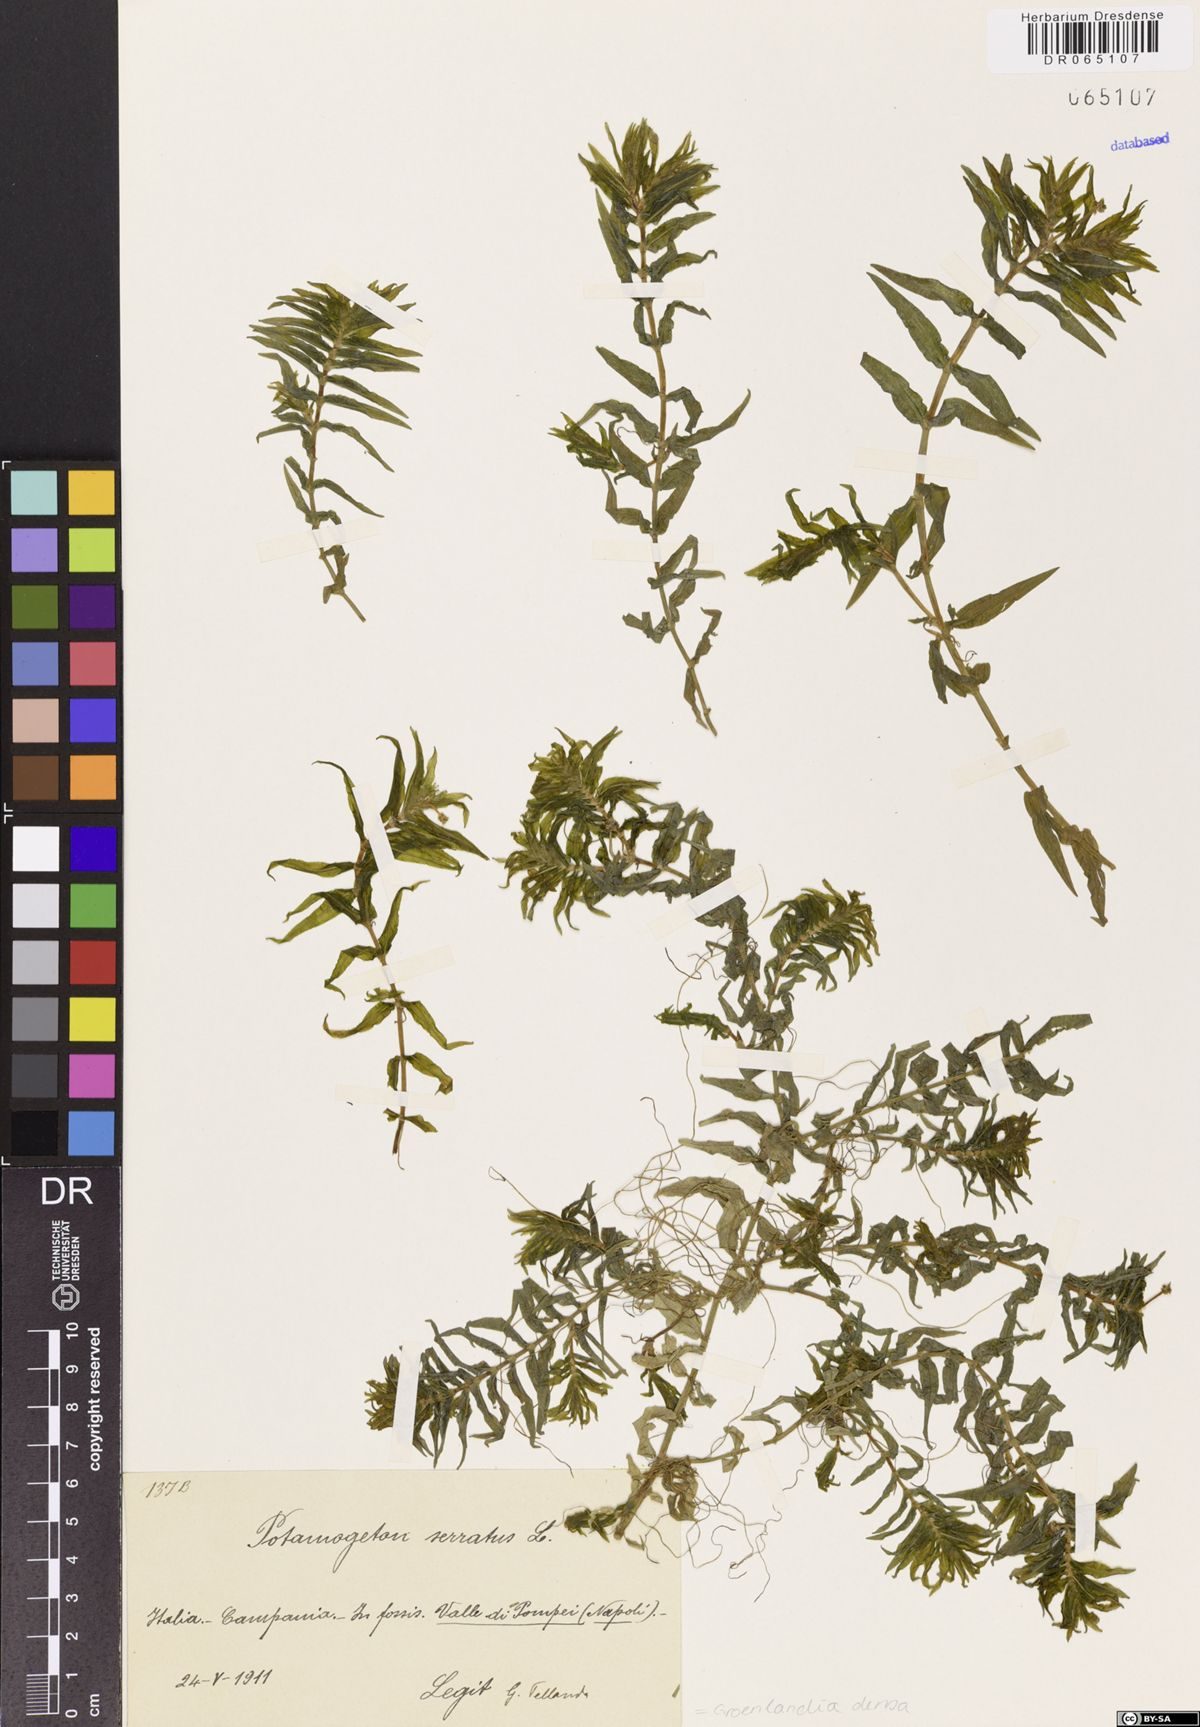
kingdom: Plantae
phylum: Tracheophyta
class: Liliopsida
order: Alismatales
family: Potamogetonaceae
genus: Groenlandia
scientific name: Groenlandia densa
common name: Opposite-leaved pondweed
